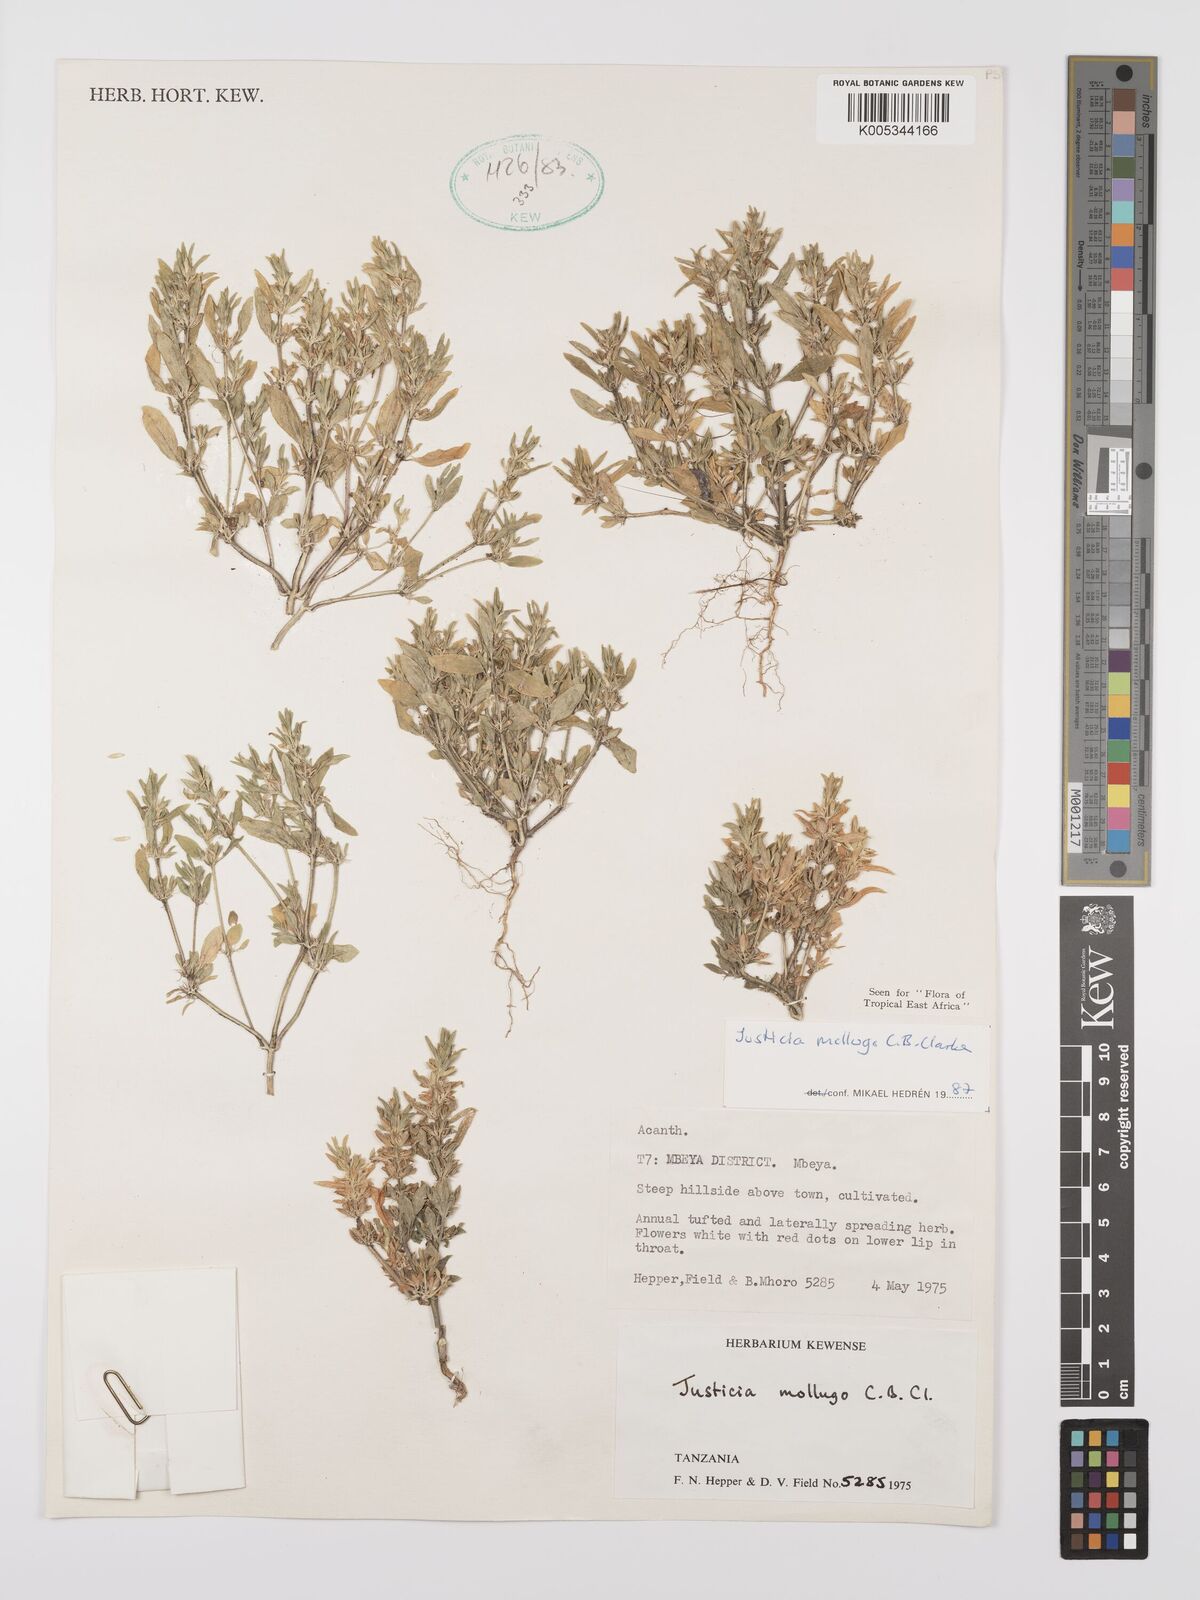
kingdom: Plantae
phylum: Tracheophyta
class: Magnoliopsida
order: Lamiales
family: Acanthaceae
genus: Justicia
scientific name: Justicia mollugo
